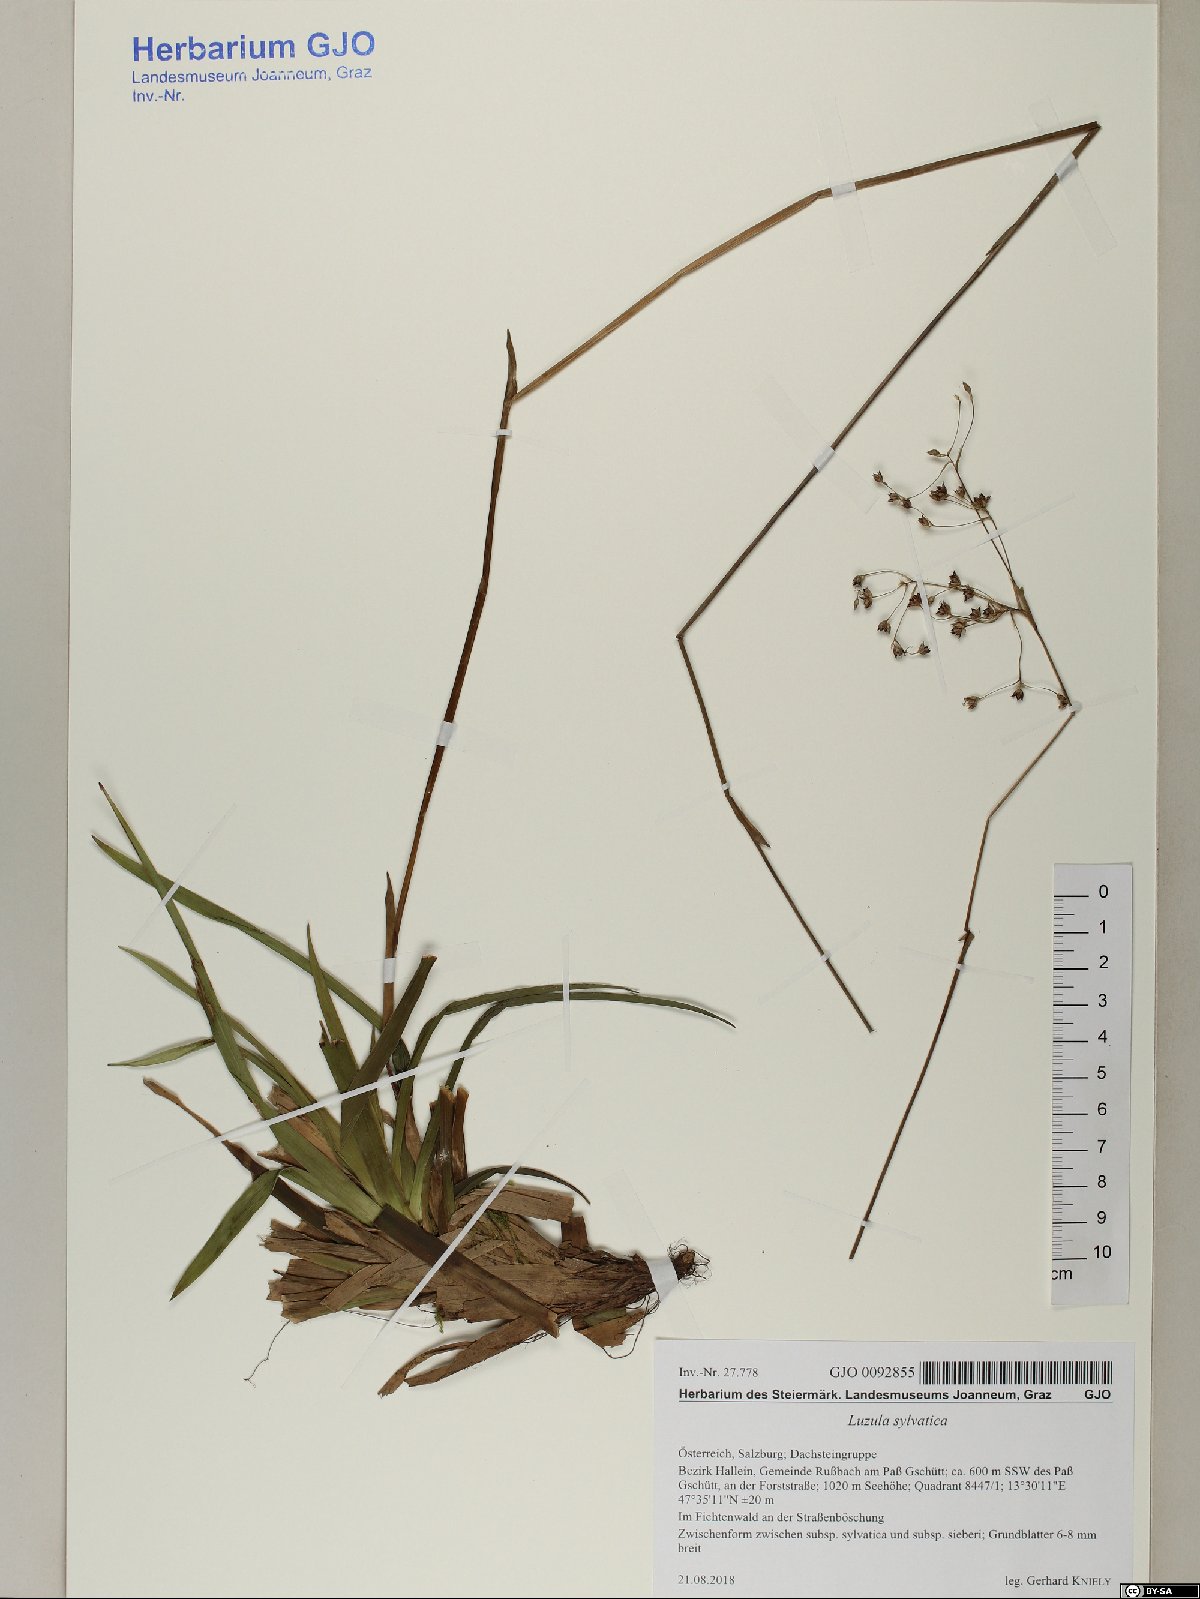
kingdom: Plantae
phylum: Tracheophyta
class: Liliopsida
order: Poales
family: Juncaceae
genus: Luzula
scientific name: Luzula sylvatica
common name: Great wood-rush
